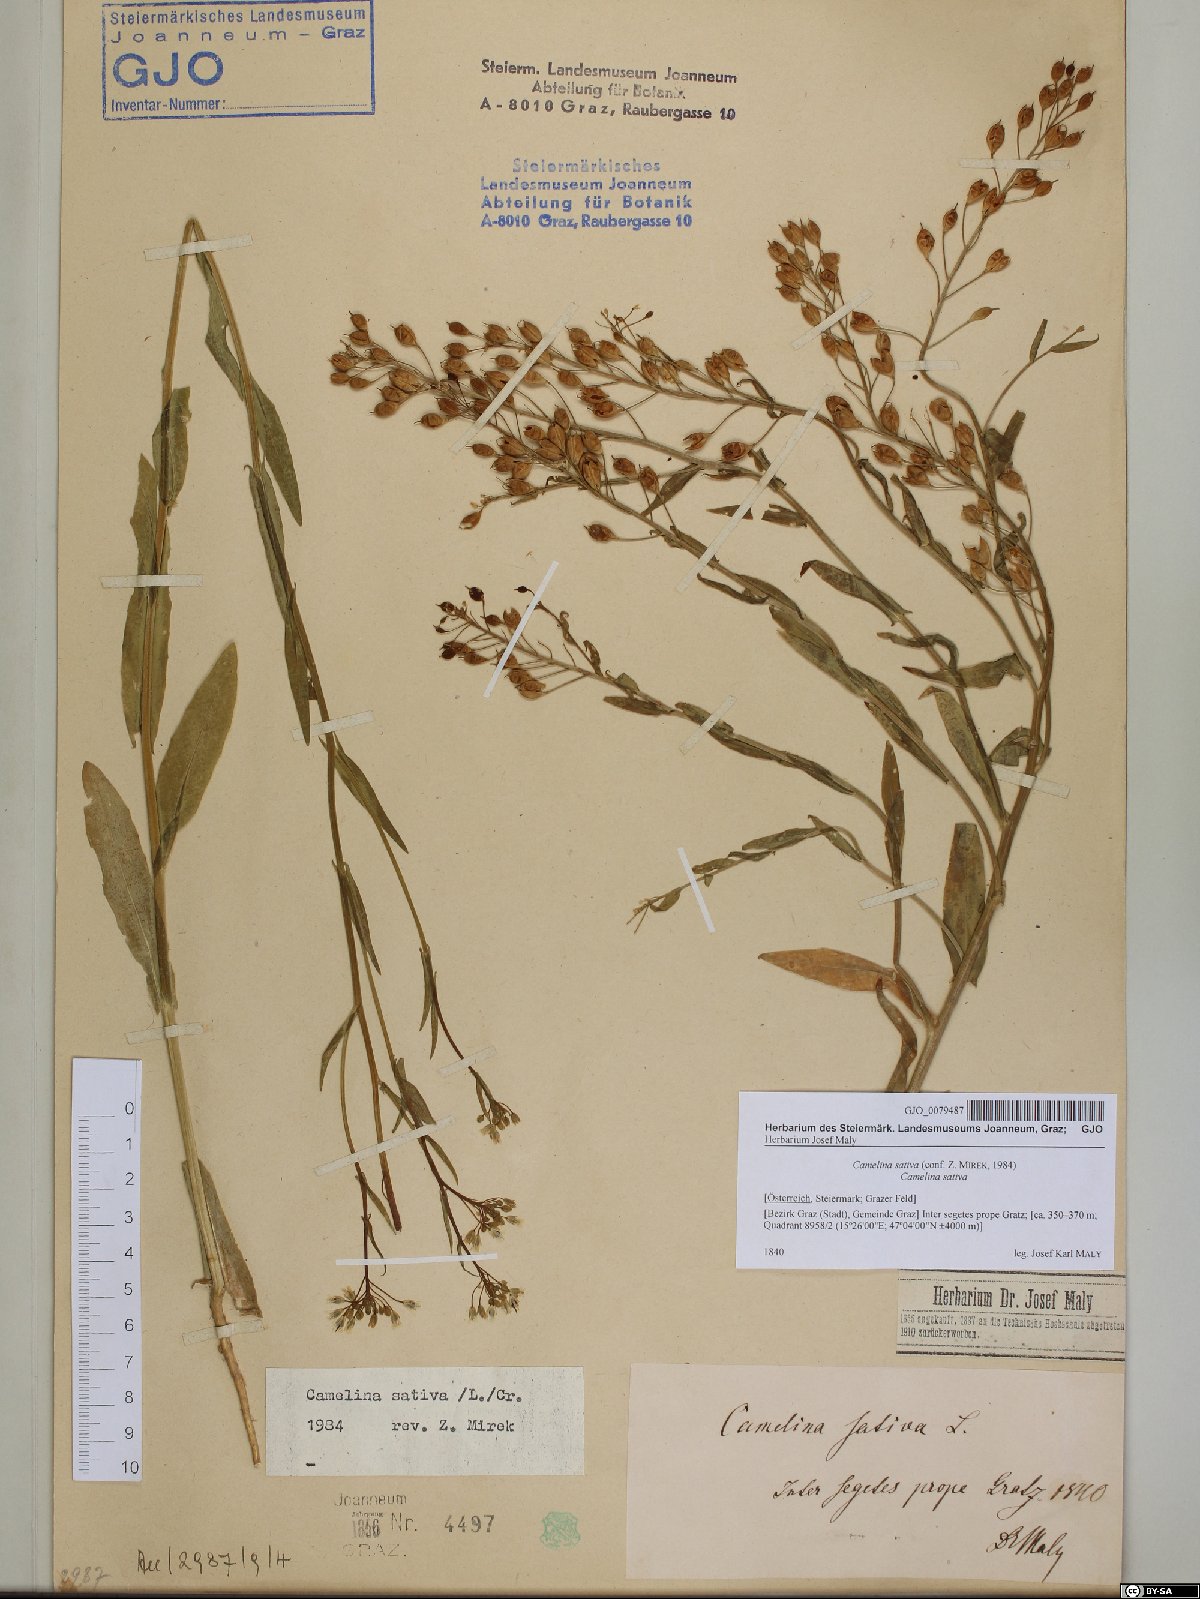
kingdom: Plantae
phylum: Tracheophyta
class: Magnoliopsida
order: Brassicales
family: Brassicaceae
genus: Camelina
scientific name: Camelina sativa
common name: Gold-of-pleasure
